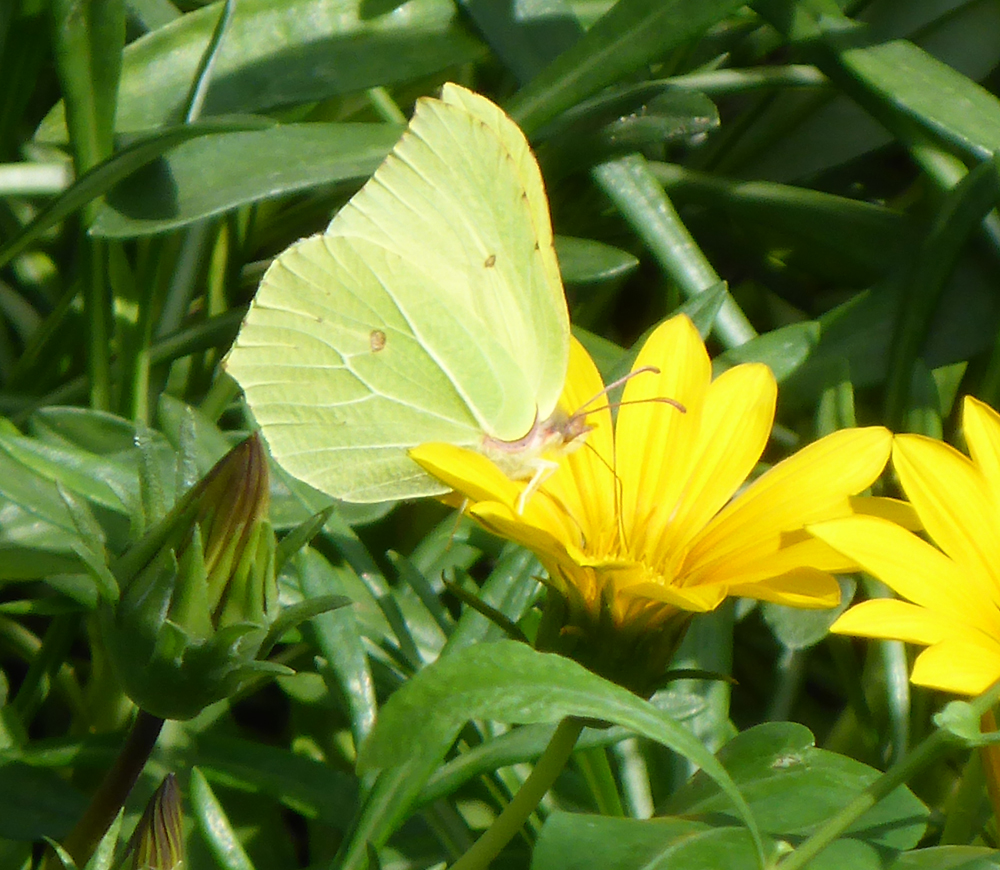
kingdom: Animalia
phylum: Arthropoda
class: Insecta
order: Lepidoptera
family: Pieridae
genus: Gonepteryx
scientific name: Gonepteryx rhamni
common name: Brimstone
